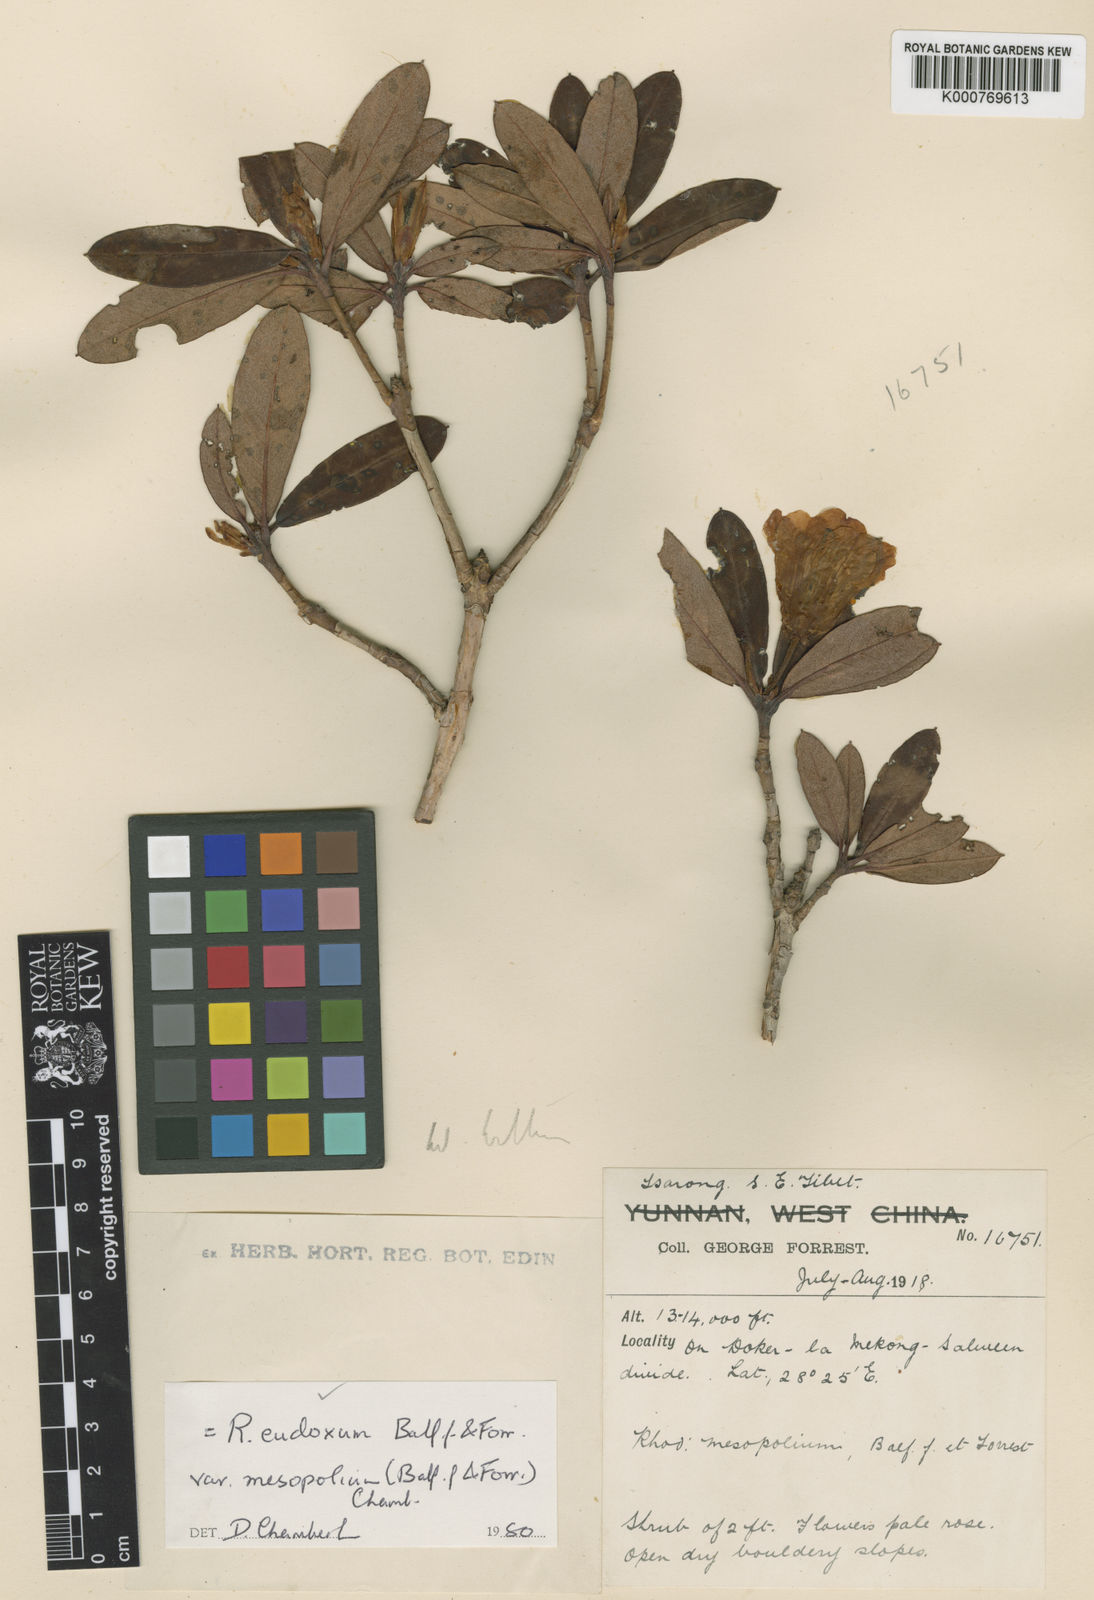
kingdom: Plantae
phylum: Tracheophyta
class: Magnoliopsida
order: Ericales
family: Ericaceae
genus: Rhododendron
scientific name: Rhododendron eudoxum
